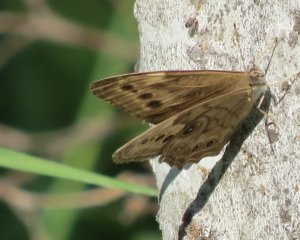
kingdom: Animalia
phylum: Arthropoda
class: Insecta
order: Lepidoptera
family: Nymphalidae
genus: Lethe
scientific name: Lethe anthedon
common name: Northern Pearly-Eye
